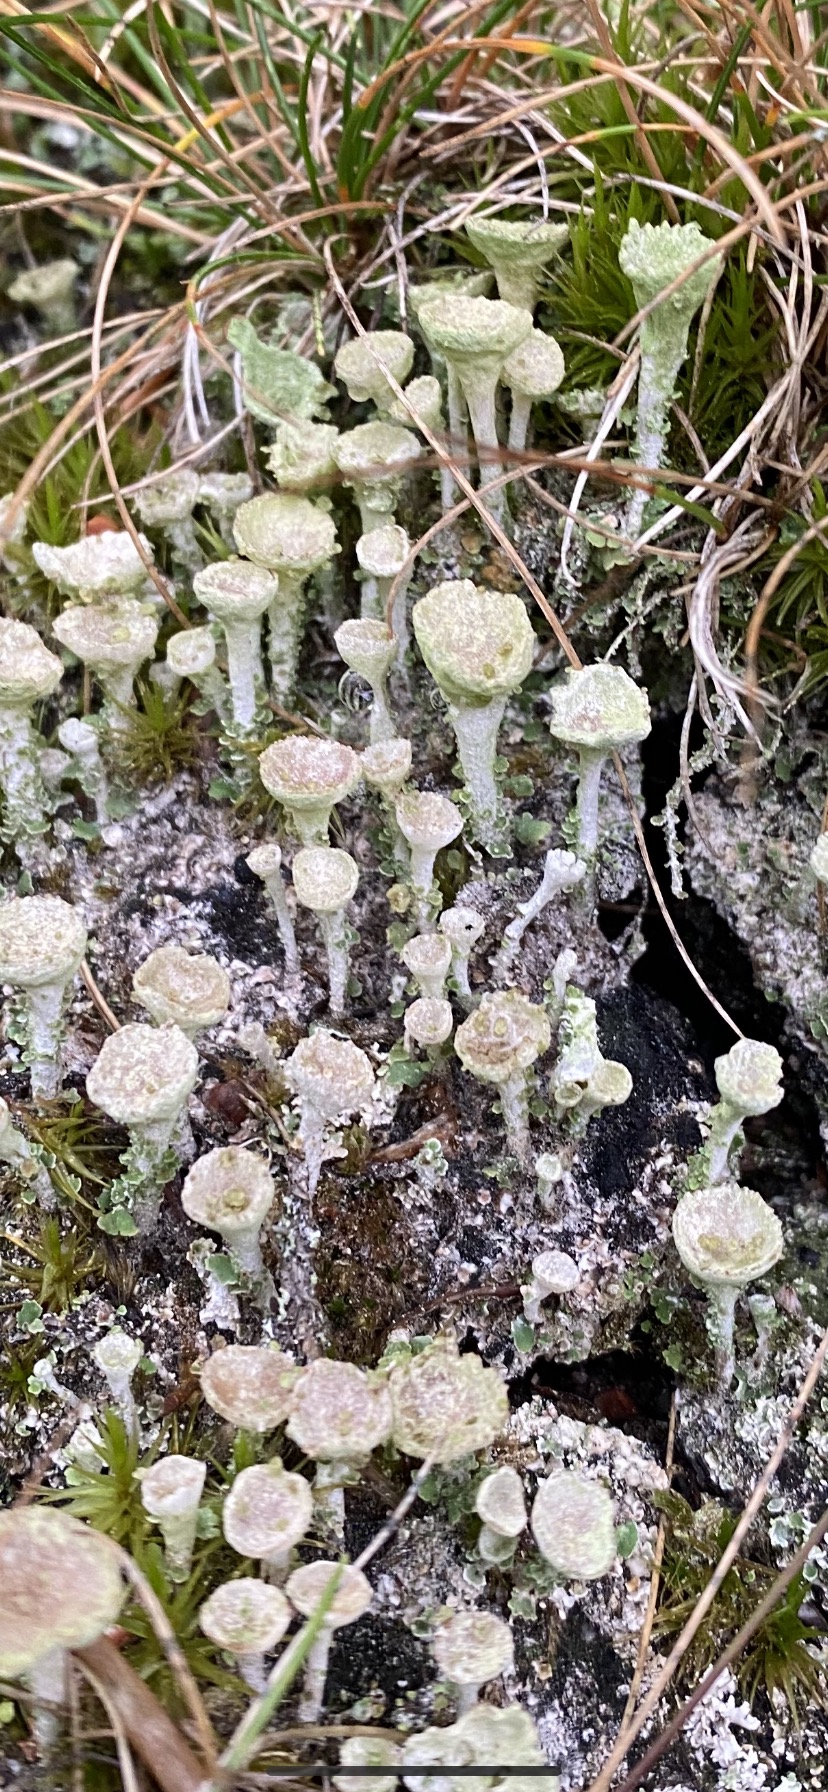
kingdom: Fungi
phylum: Ascomycota
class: Lecanoromycetes
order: Lecanorales
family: Cladoniaceae
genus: Cladonia
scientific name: Cladonia
